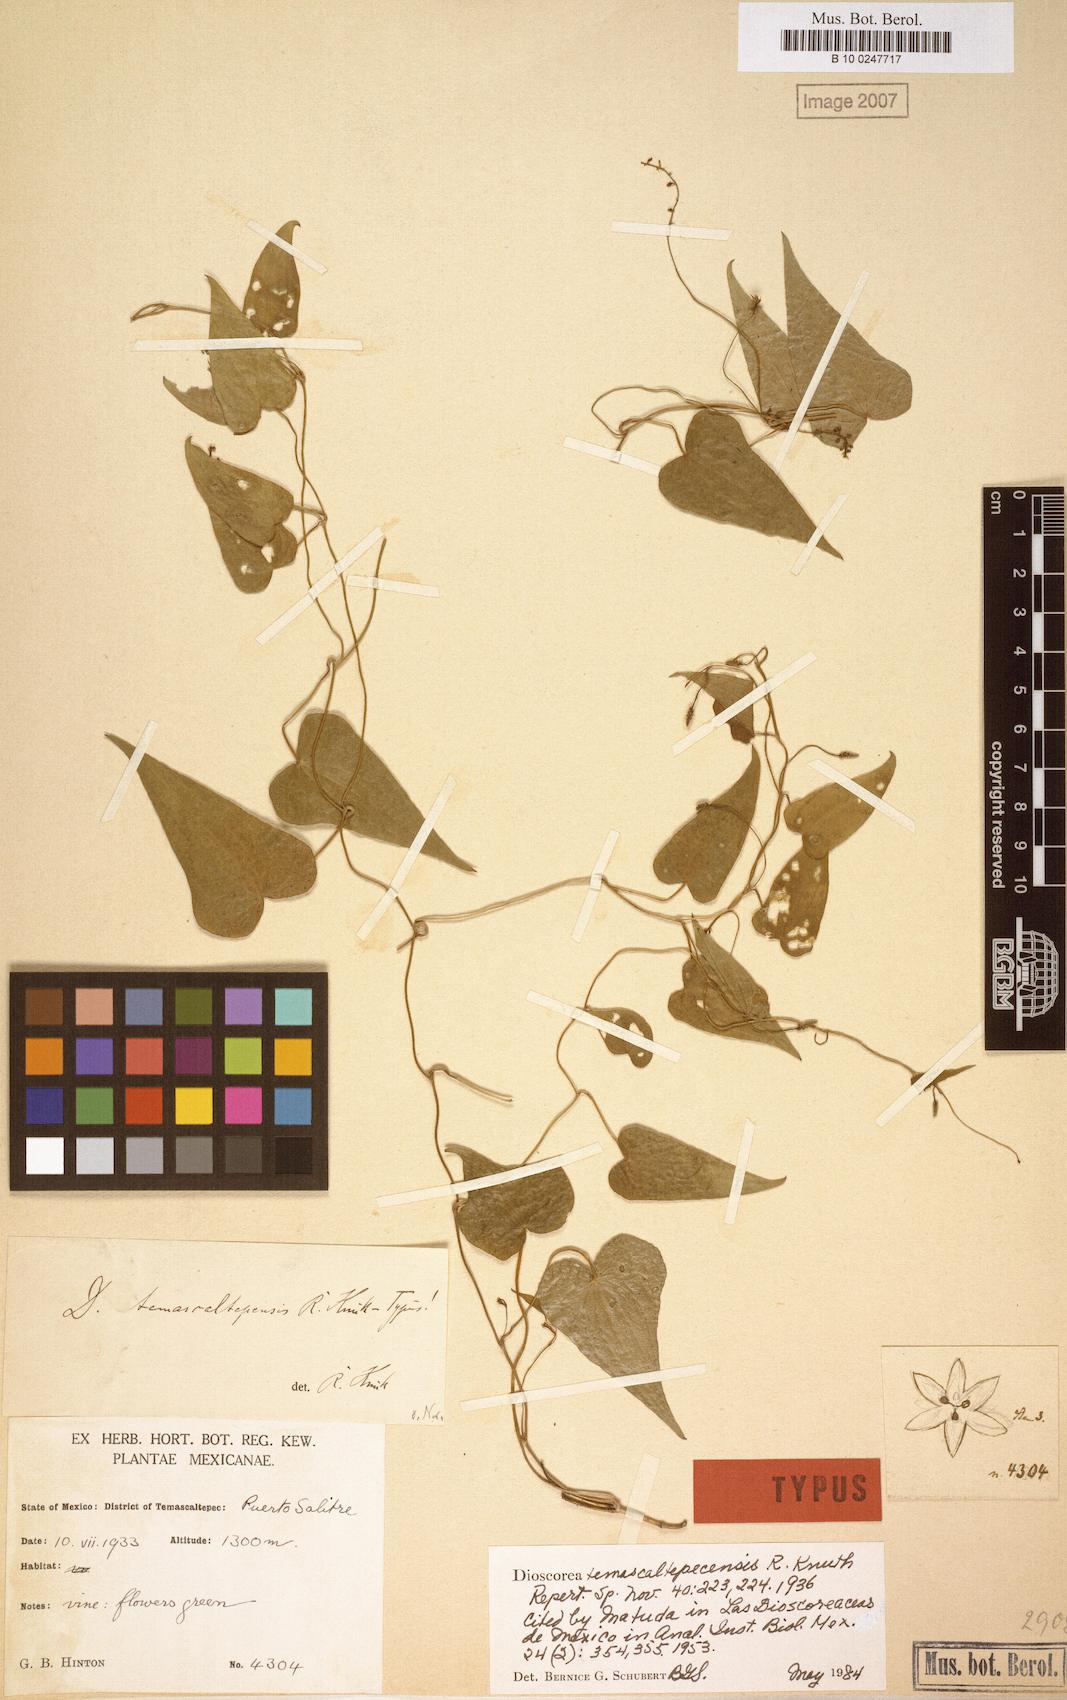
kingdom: Plantae
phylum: Tracheophyta
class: Liliopsida
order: Dioscoreales
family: Dioscoreaceae
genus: Dioscorea
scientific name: Dioscorea temascaltepecensis
